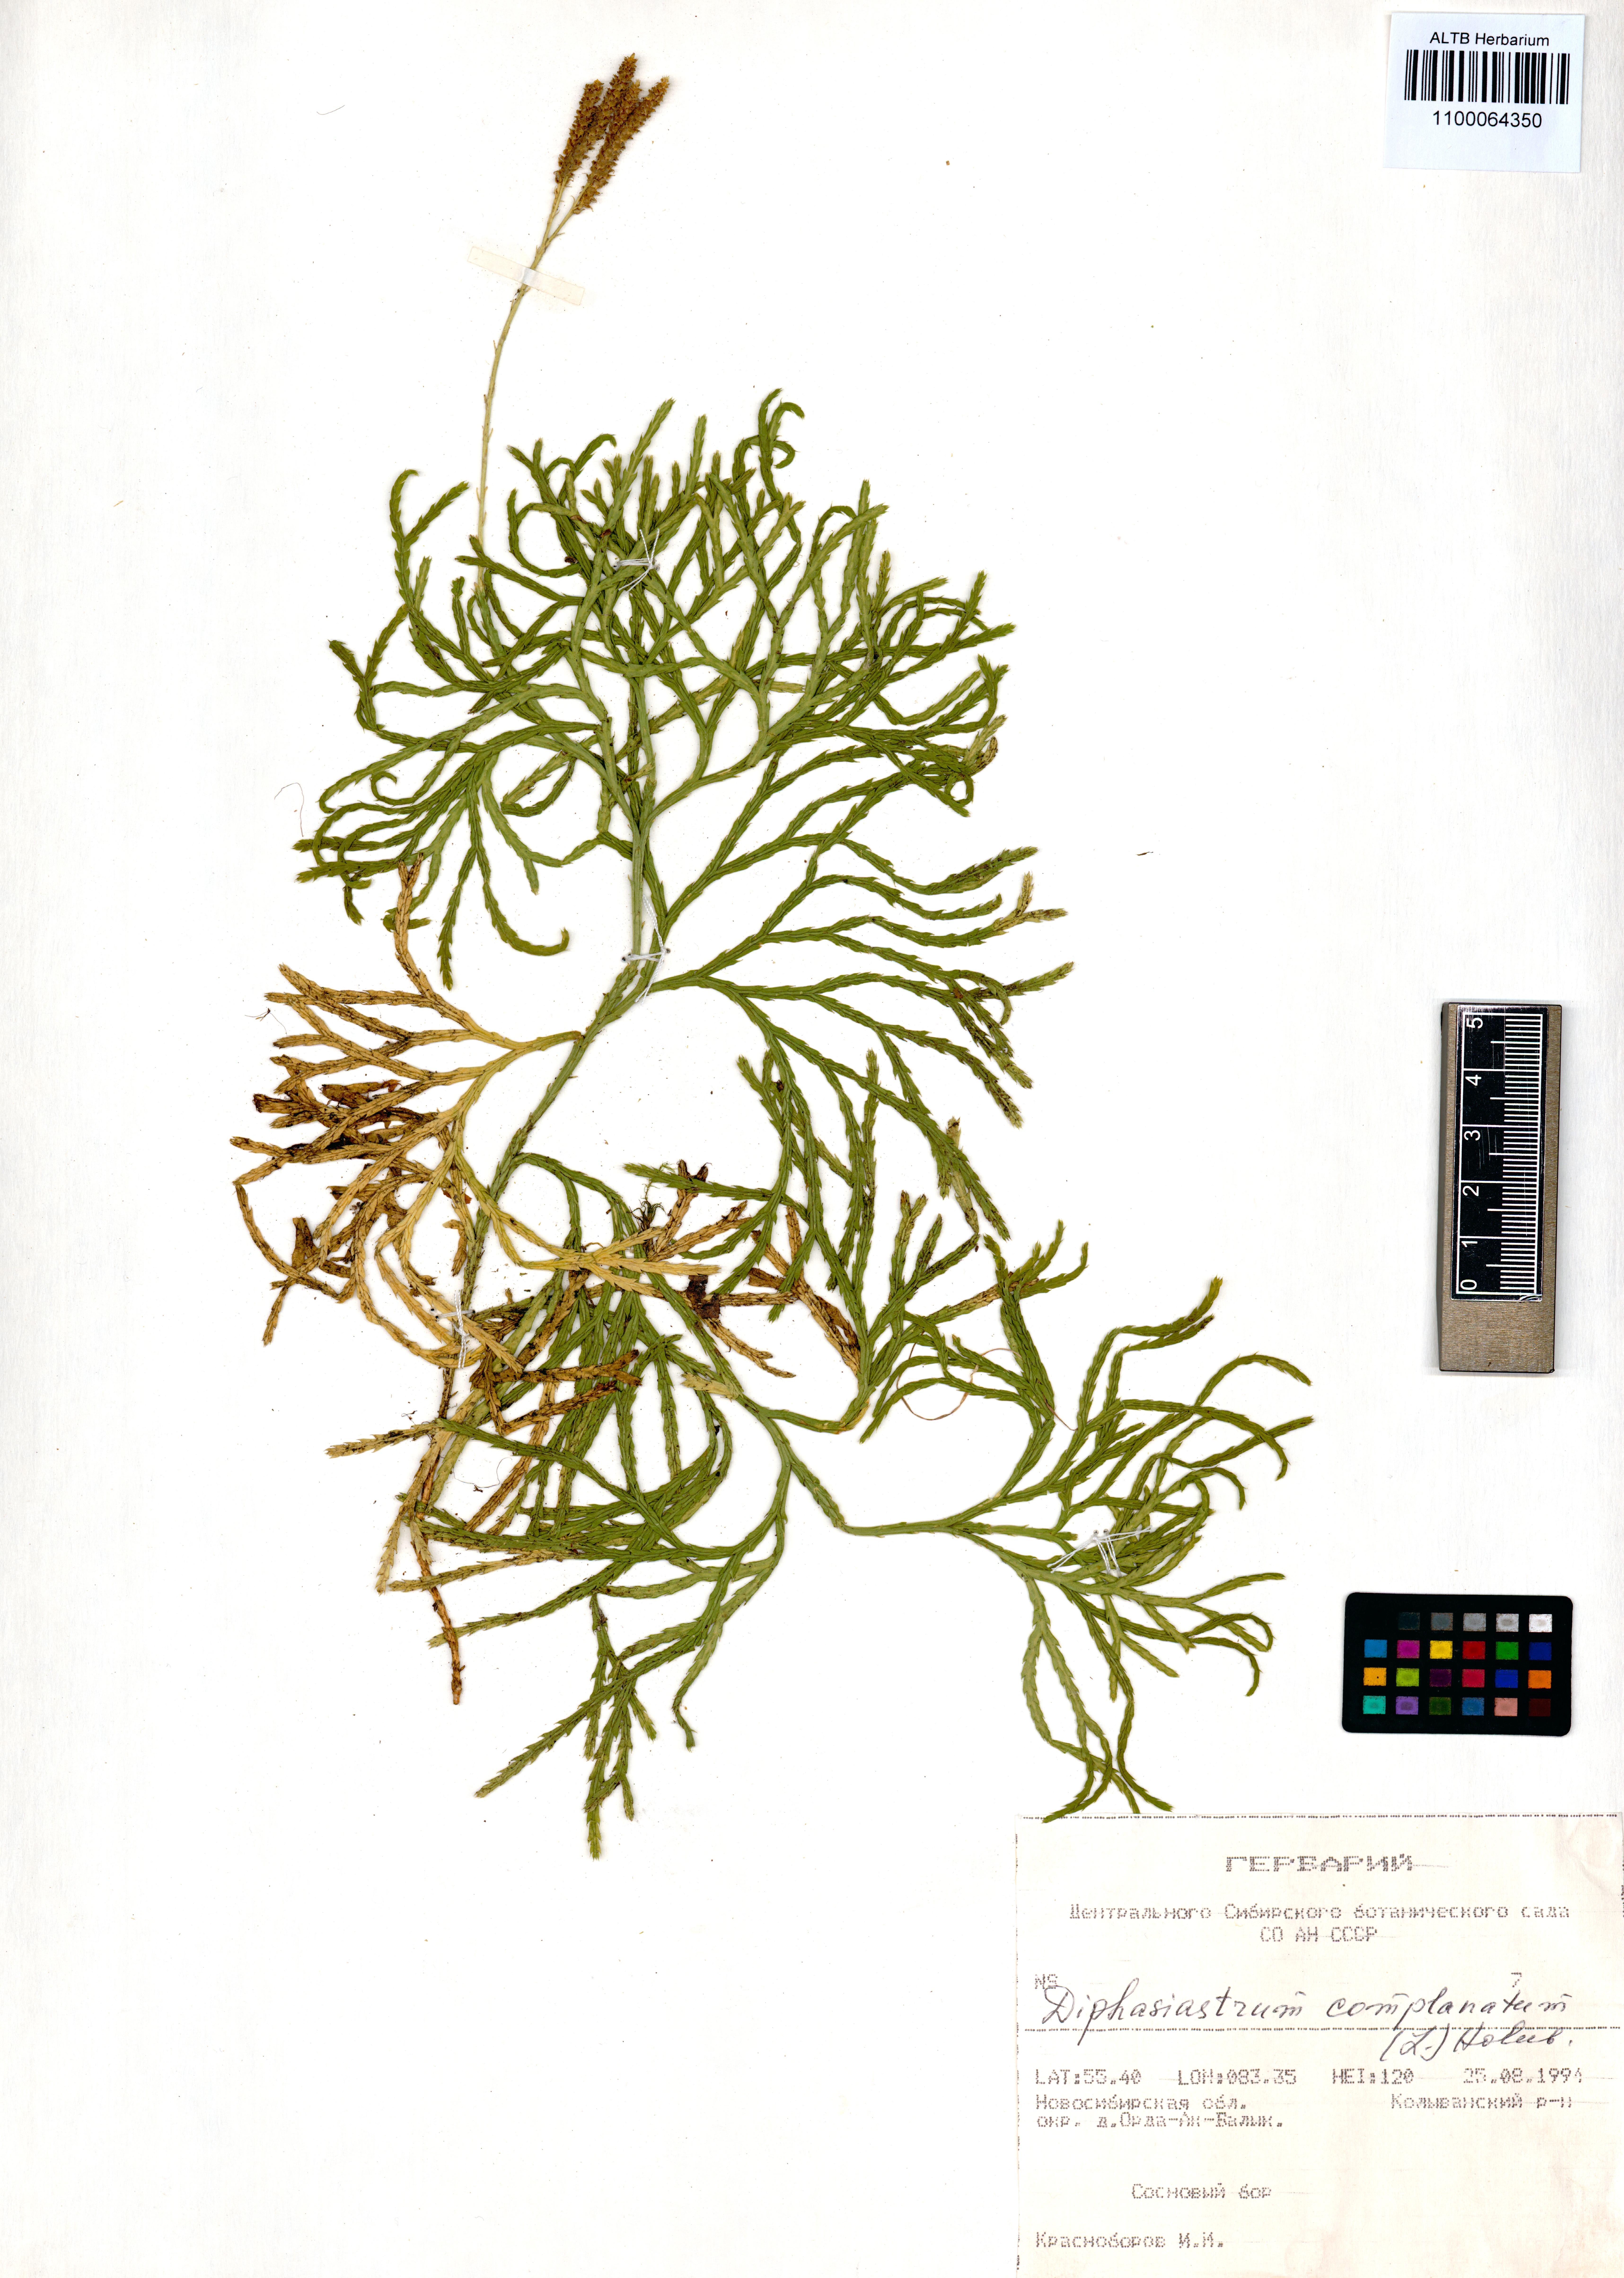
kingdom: Plantae
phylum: Tracheophyta
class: Lycopodiopsida
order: Lycopodiales
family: Lycopodiaceae
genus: Diphasiastrum
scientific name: Diphasiastrum complanatum
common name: Northern running-pine
